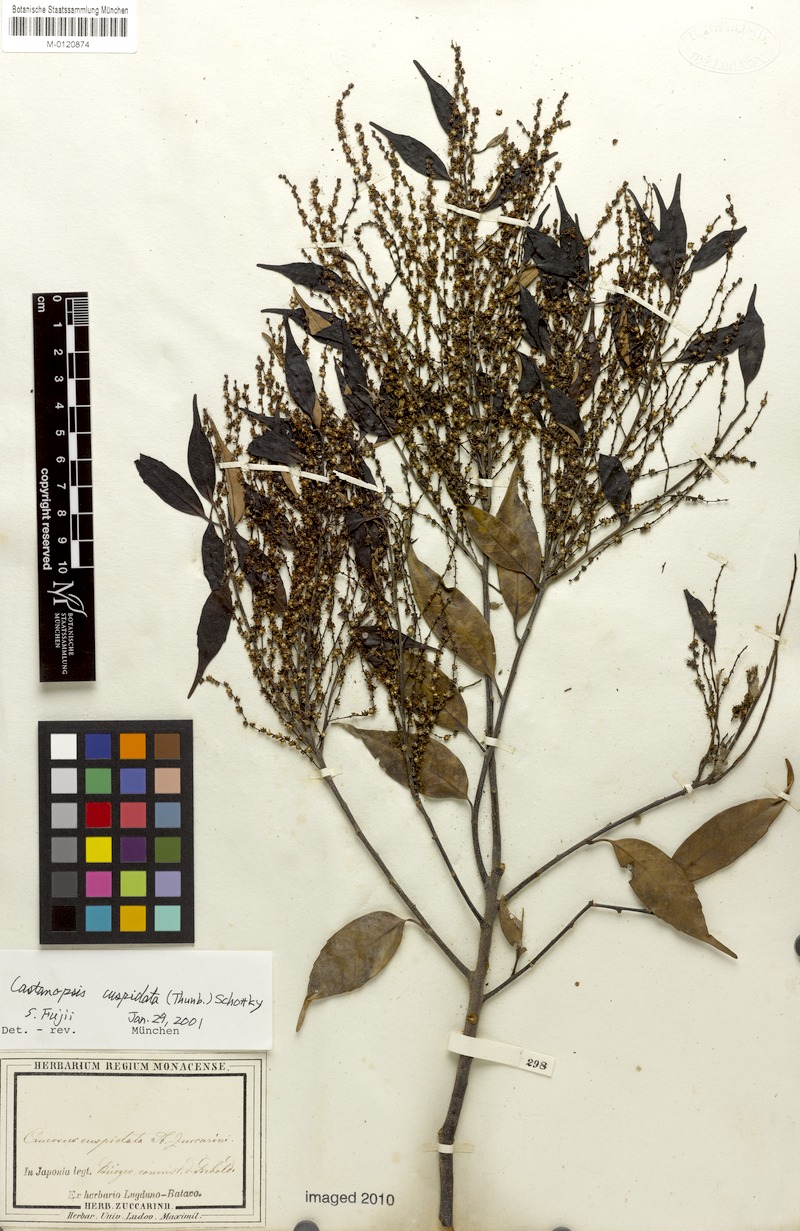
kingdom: Plantae
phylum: Tracheophyta
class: Magnoliopsida
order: Fagales
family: Fagaceae
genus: Castanopsis
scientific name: Castanopsis cuspidata
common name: Japanese chinquapin
